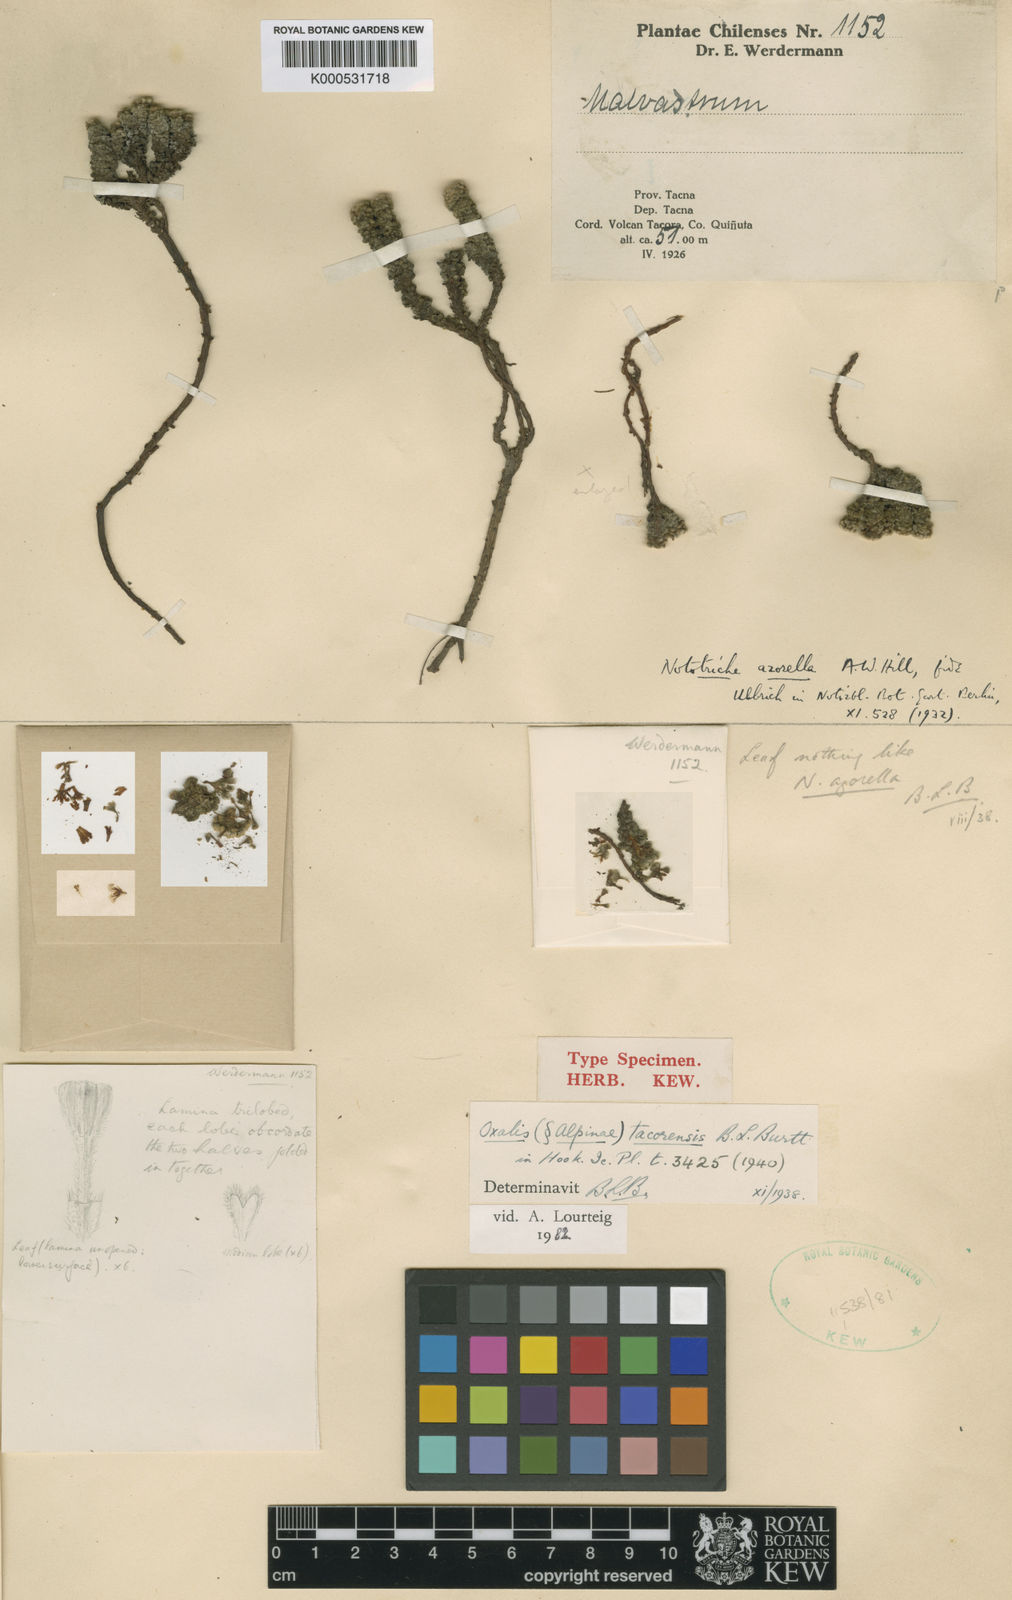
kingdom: Plantae
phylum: Tracheophyta
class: Magnoliopsida
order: Oxalidales
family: Oxalidaceae
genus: Oxalis
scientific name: Oxalis tacorensis
